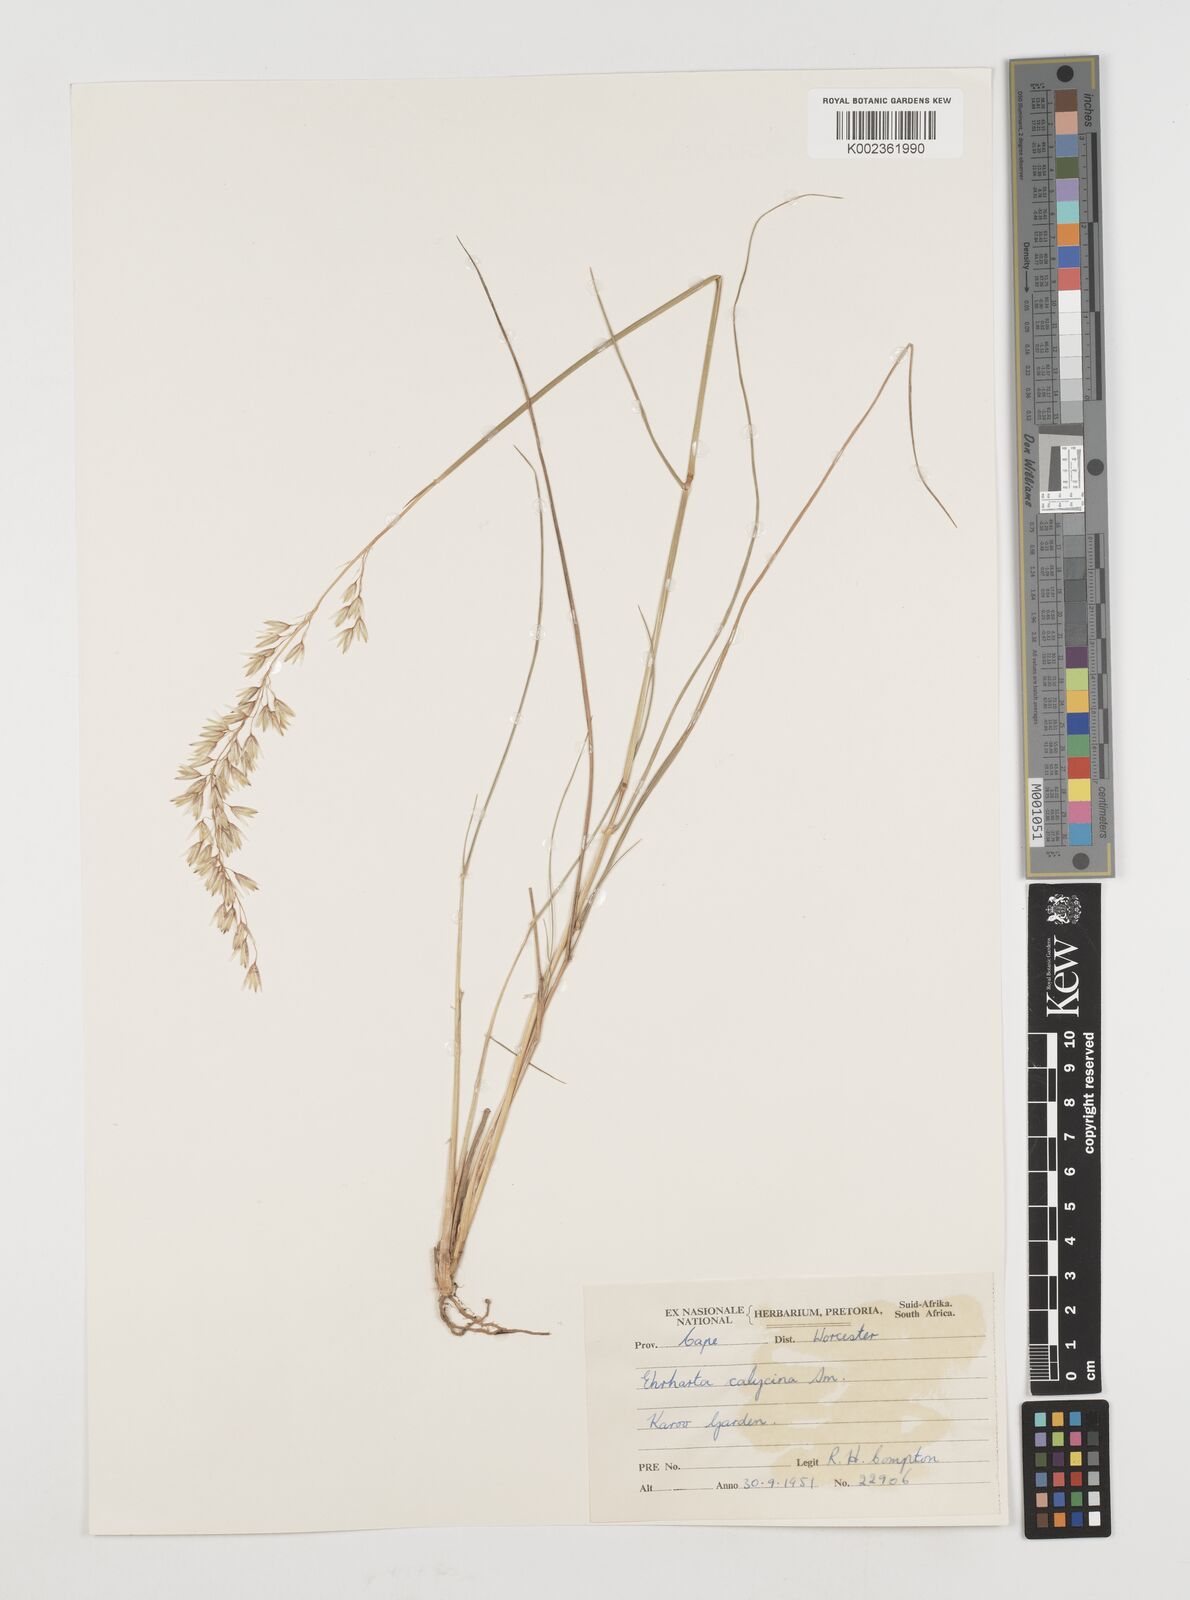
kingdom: Plantae
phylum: Tracheophyta
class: Liliopsida
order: Poales
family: Poaceae
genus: Ehrharta
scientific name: Ehrharta calycina
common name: Perennial veldtgrass
